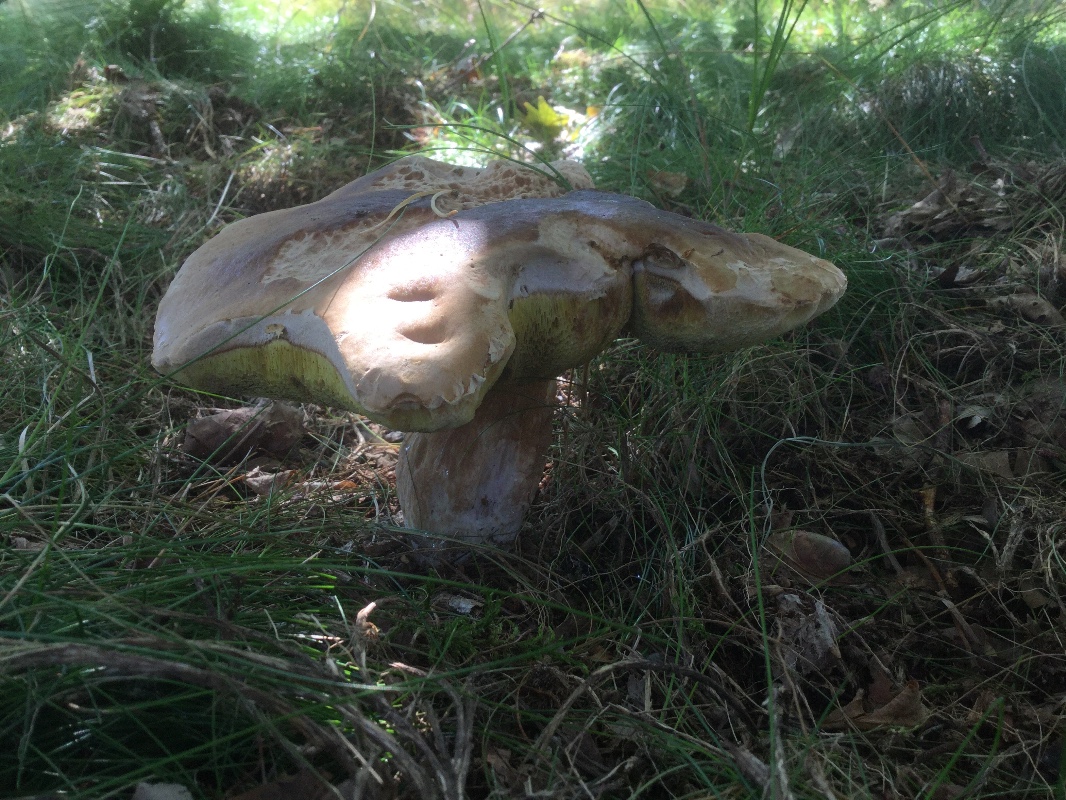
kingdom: Fungi
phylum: Basidiomycota
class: Agaricomycetes
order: Boletales
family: Boletaceae
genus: Boletus
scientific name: Boletus edulis
